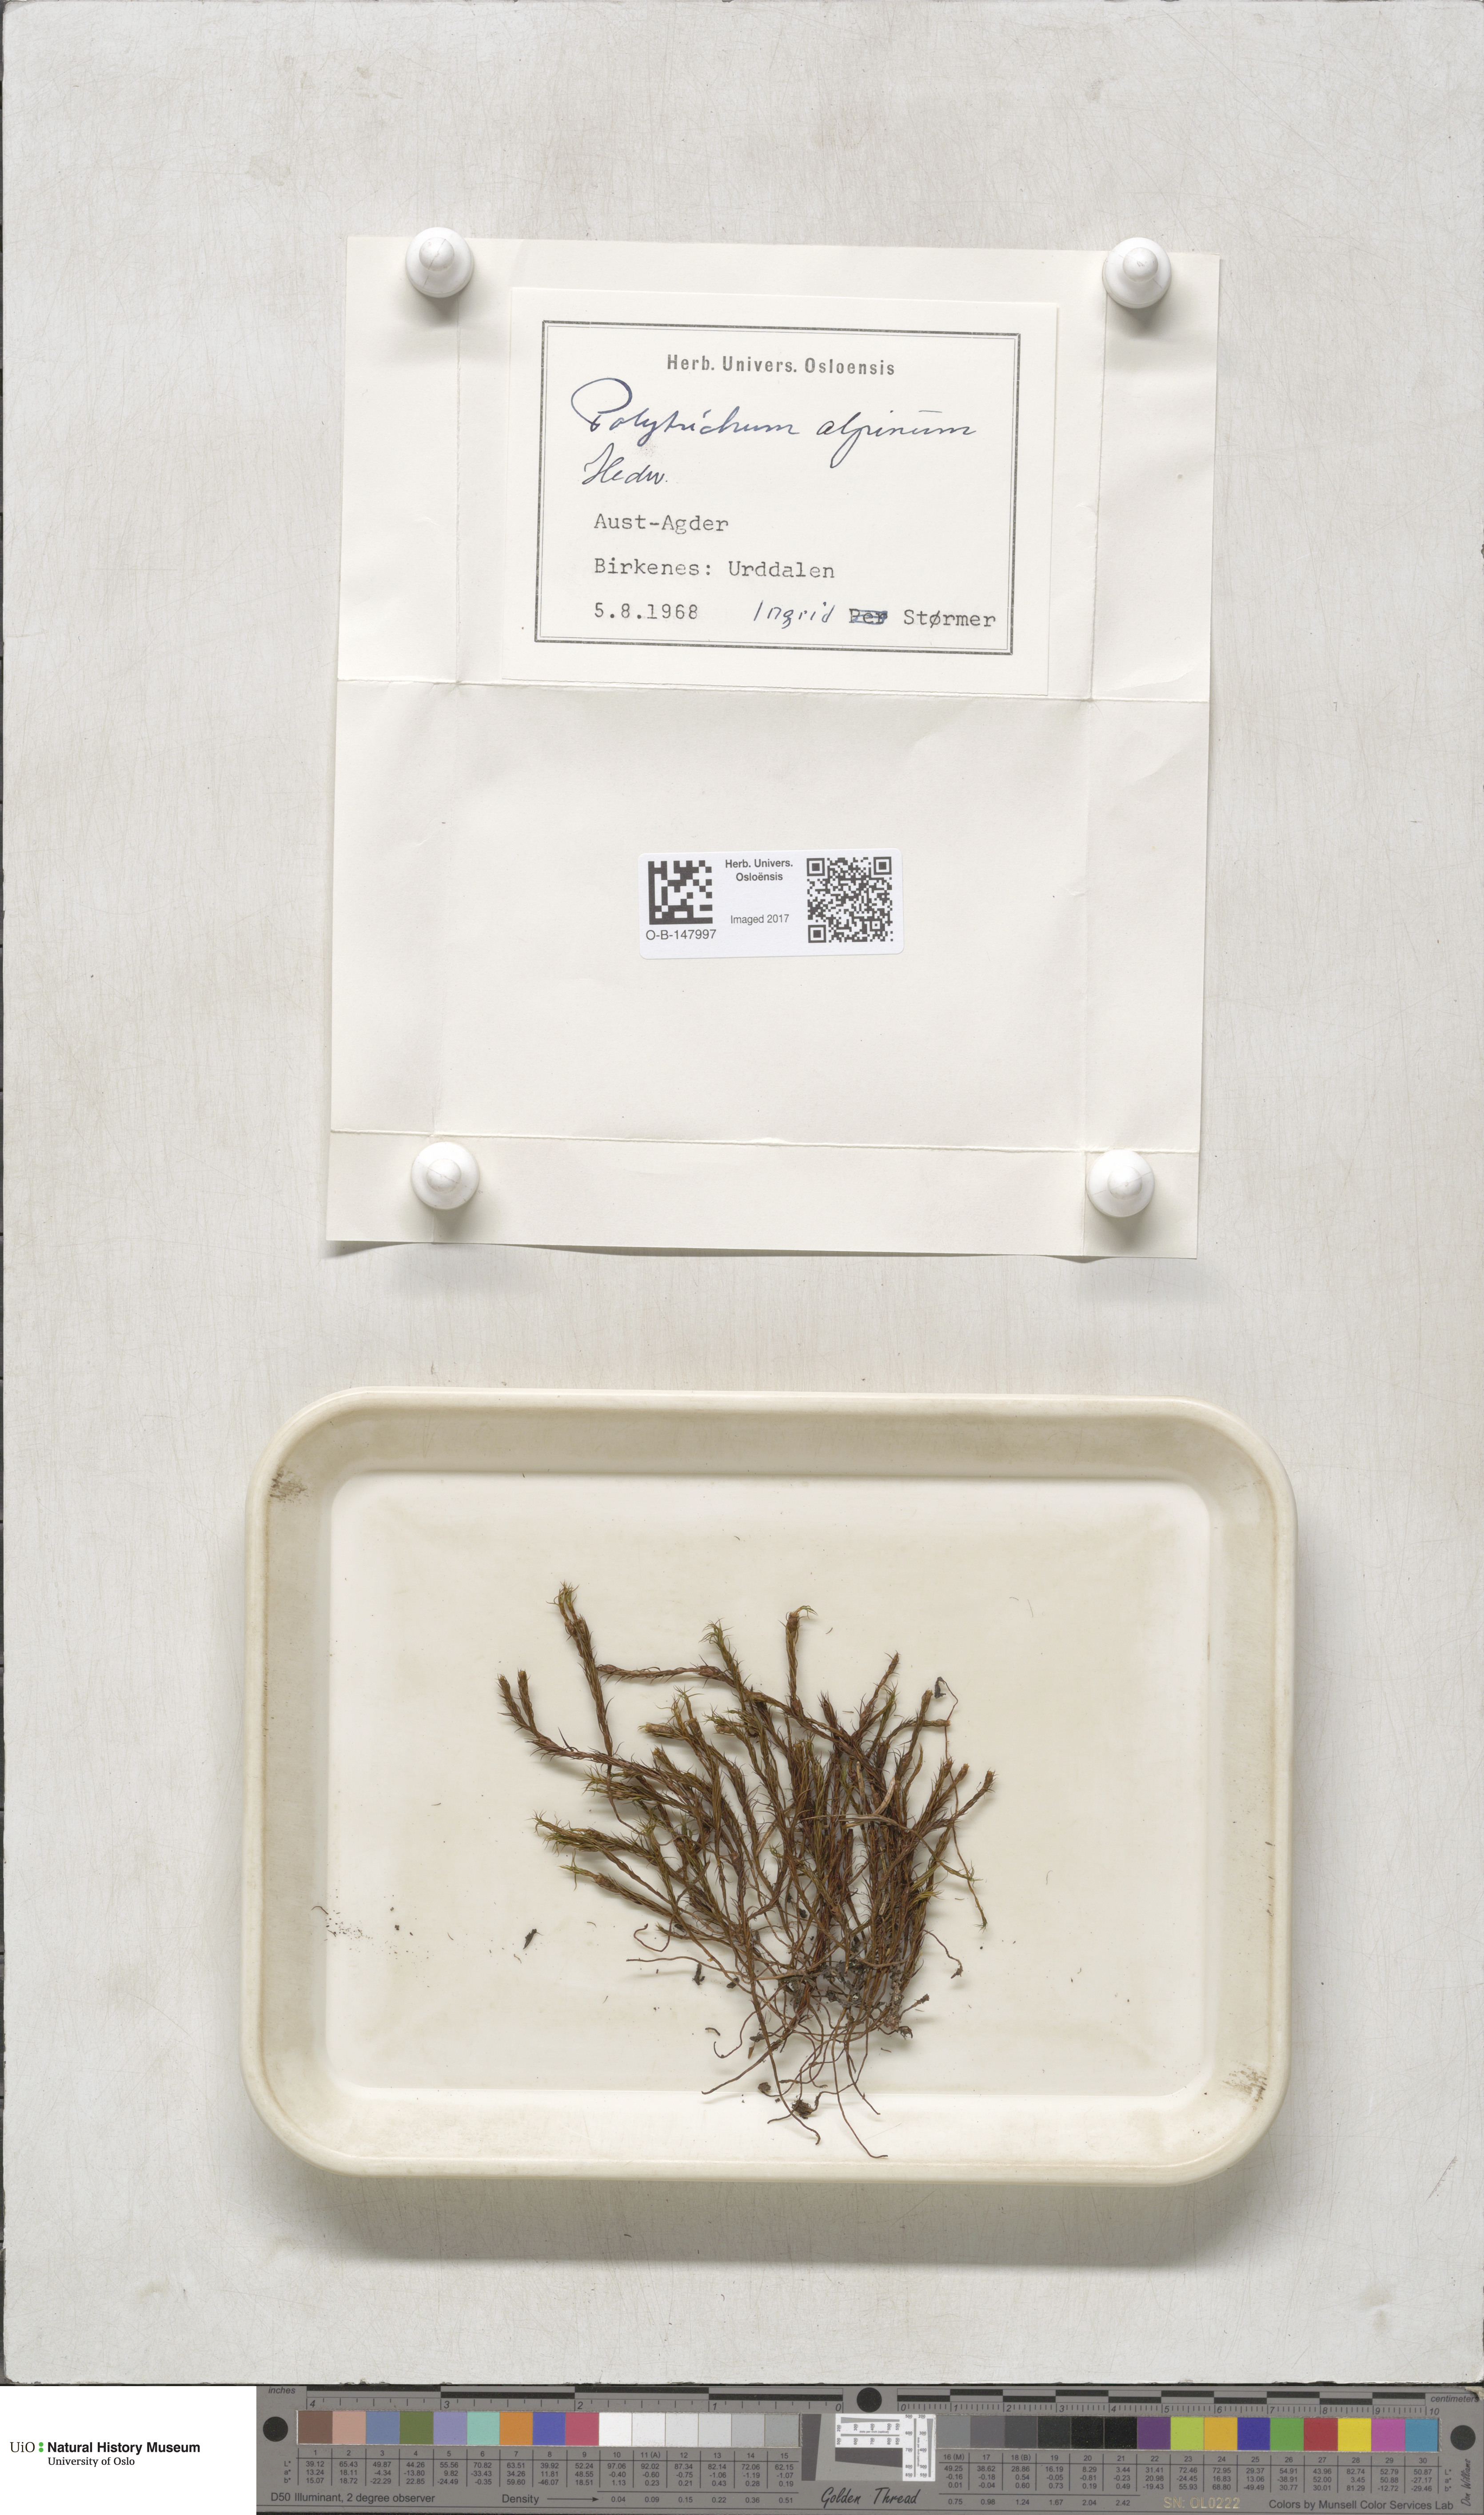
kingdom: Plantae
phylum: Bryophyta
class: Polytrichopsida
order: Polytrichales
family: Polytrichaceae
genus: Polytrichastrum
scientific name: Polytrichastrum alpinum
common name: Alpine haircap
